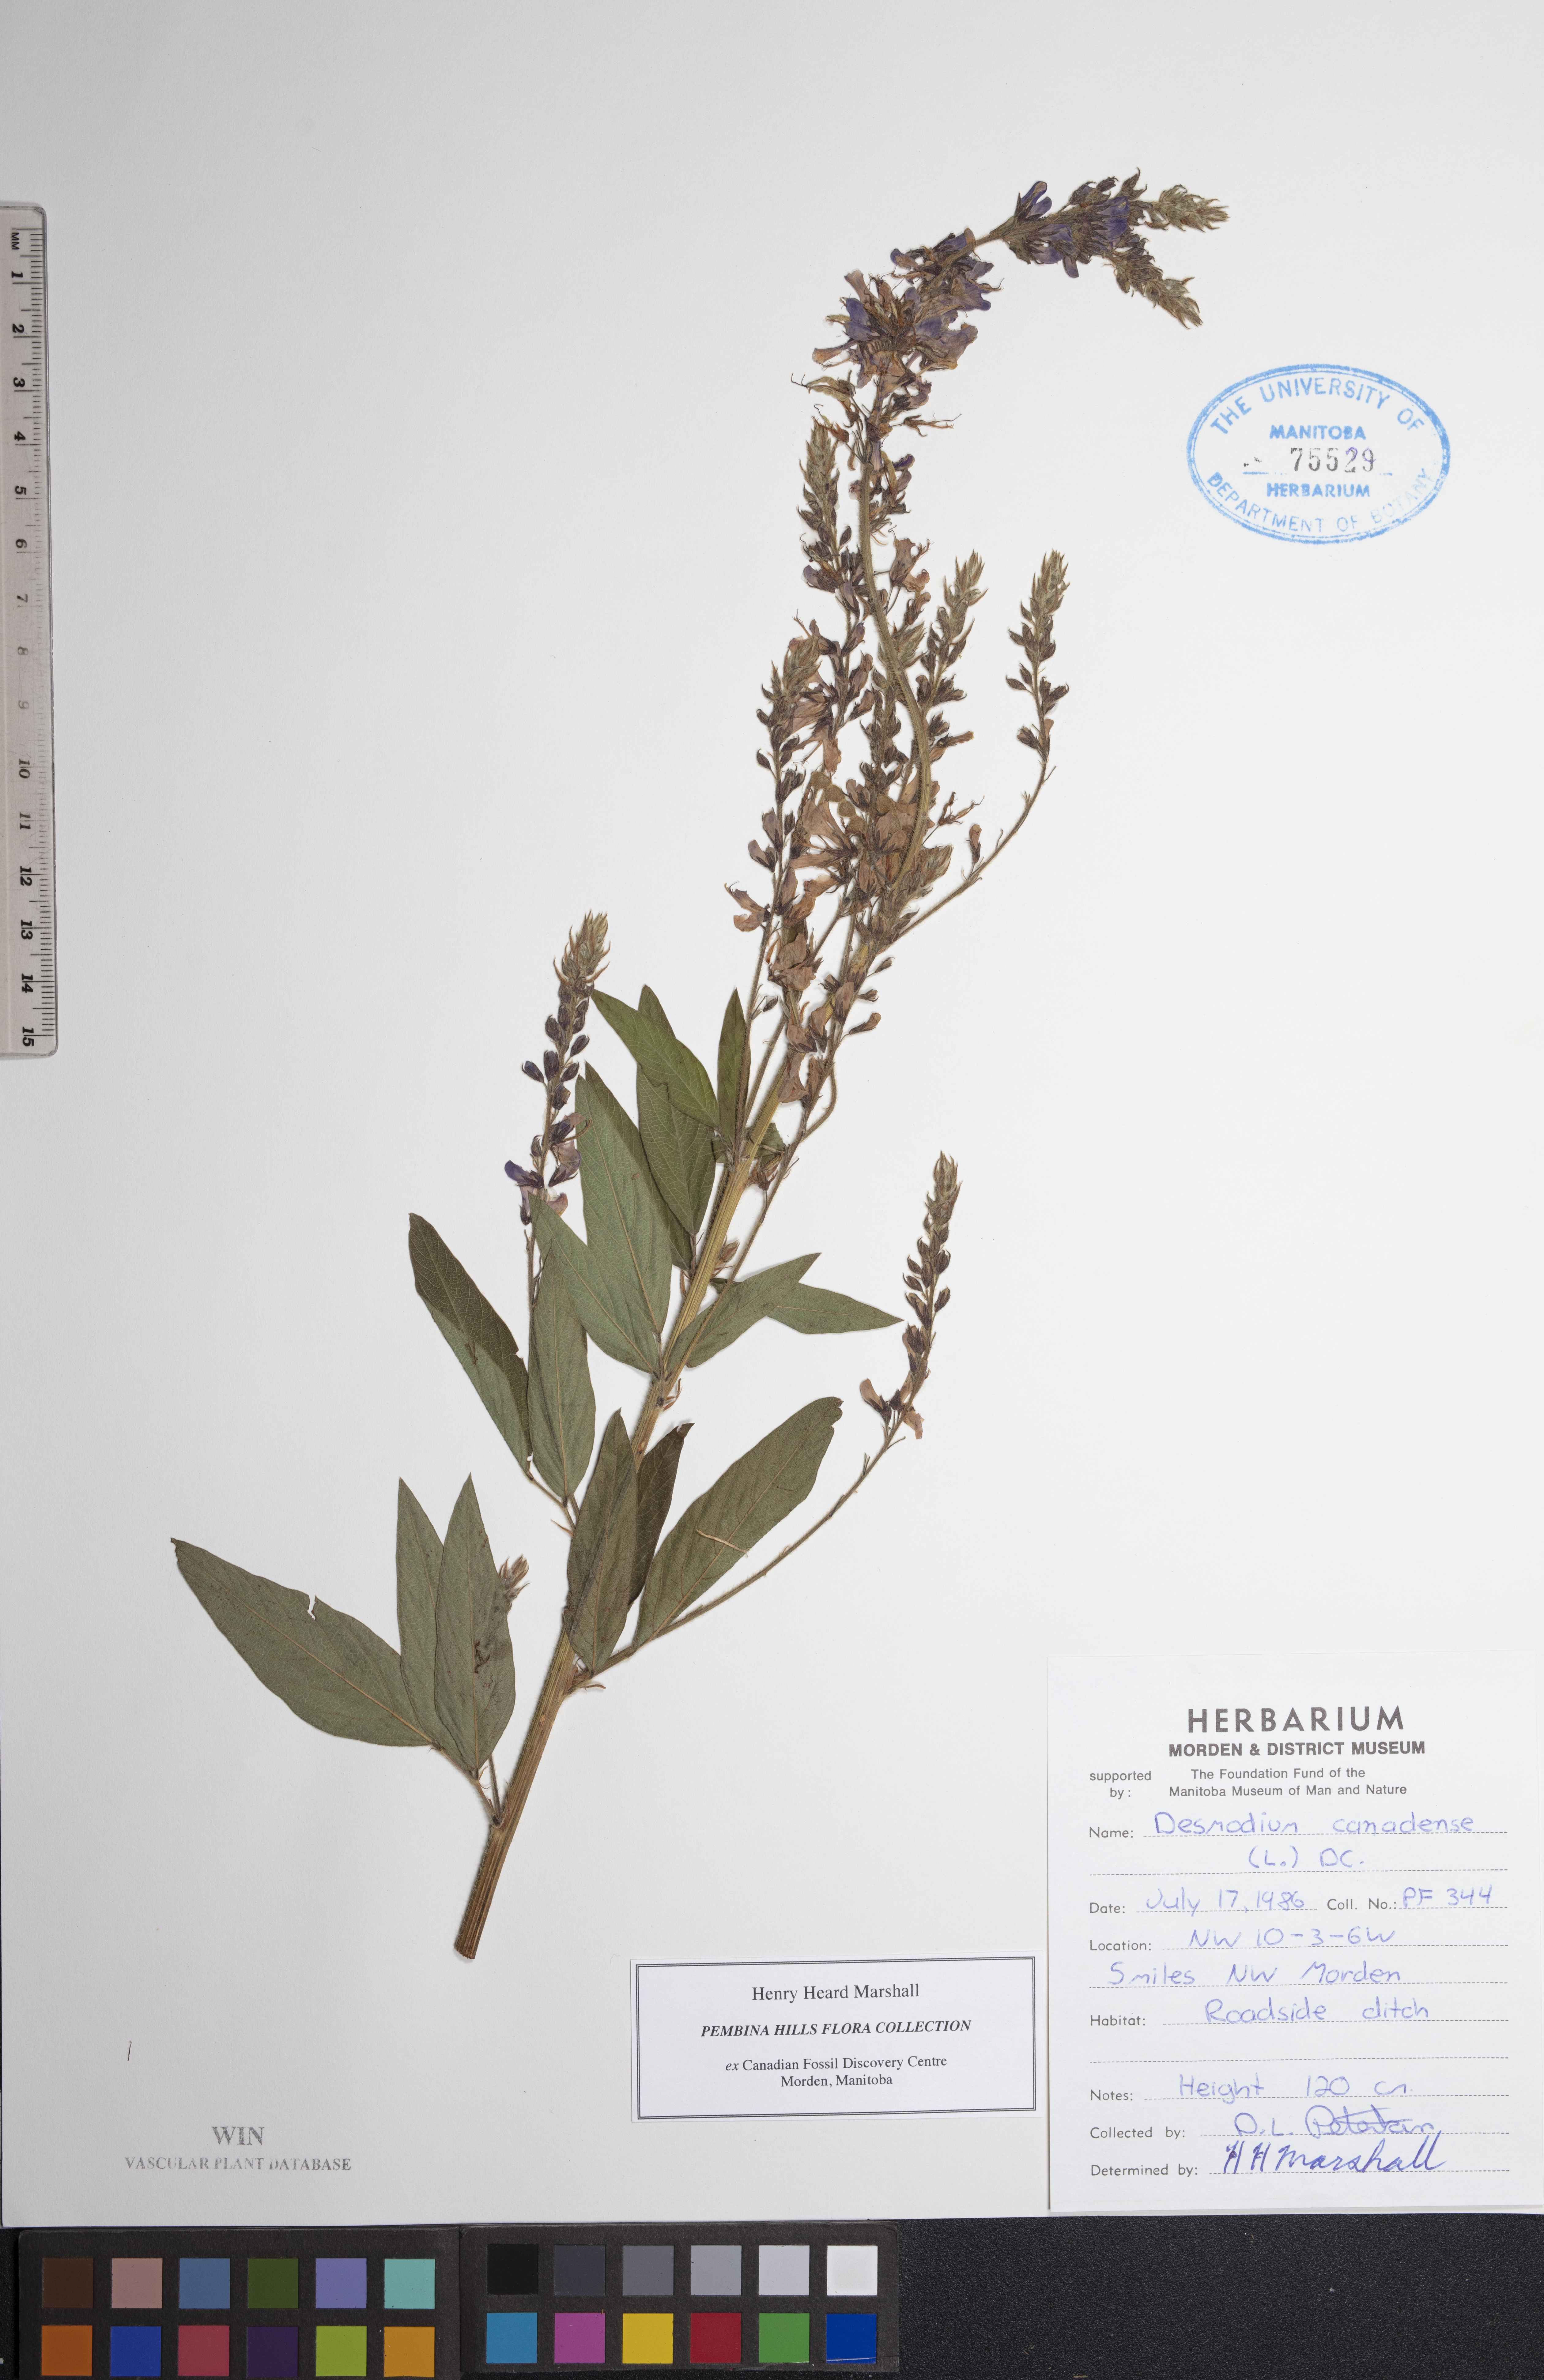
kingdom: Plantae
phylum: Tracheophyta
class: Magnoliopsida
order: Fabales
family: Fabaceae
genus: Desmodium
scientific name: Desmodium canadense
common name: Canada tick-trefoil
